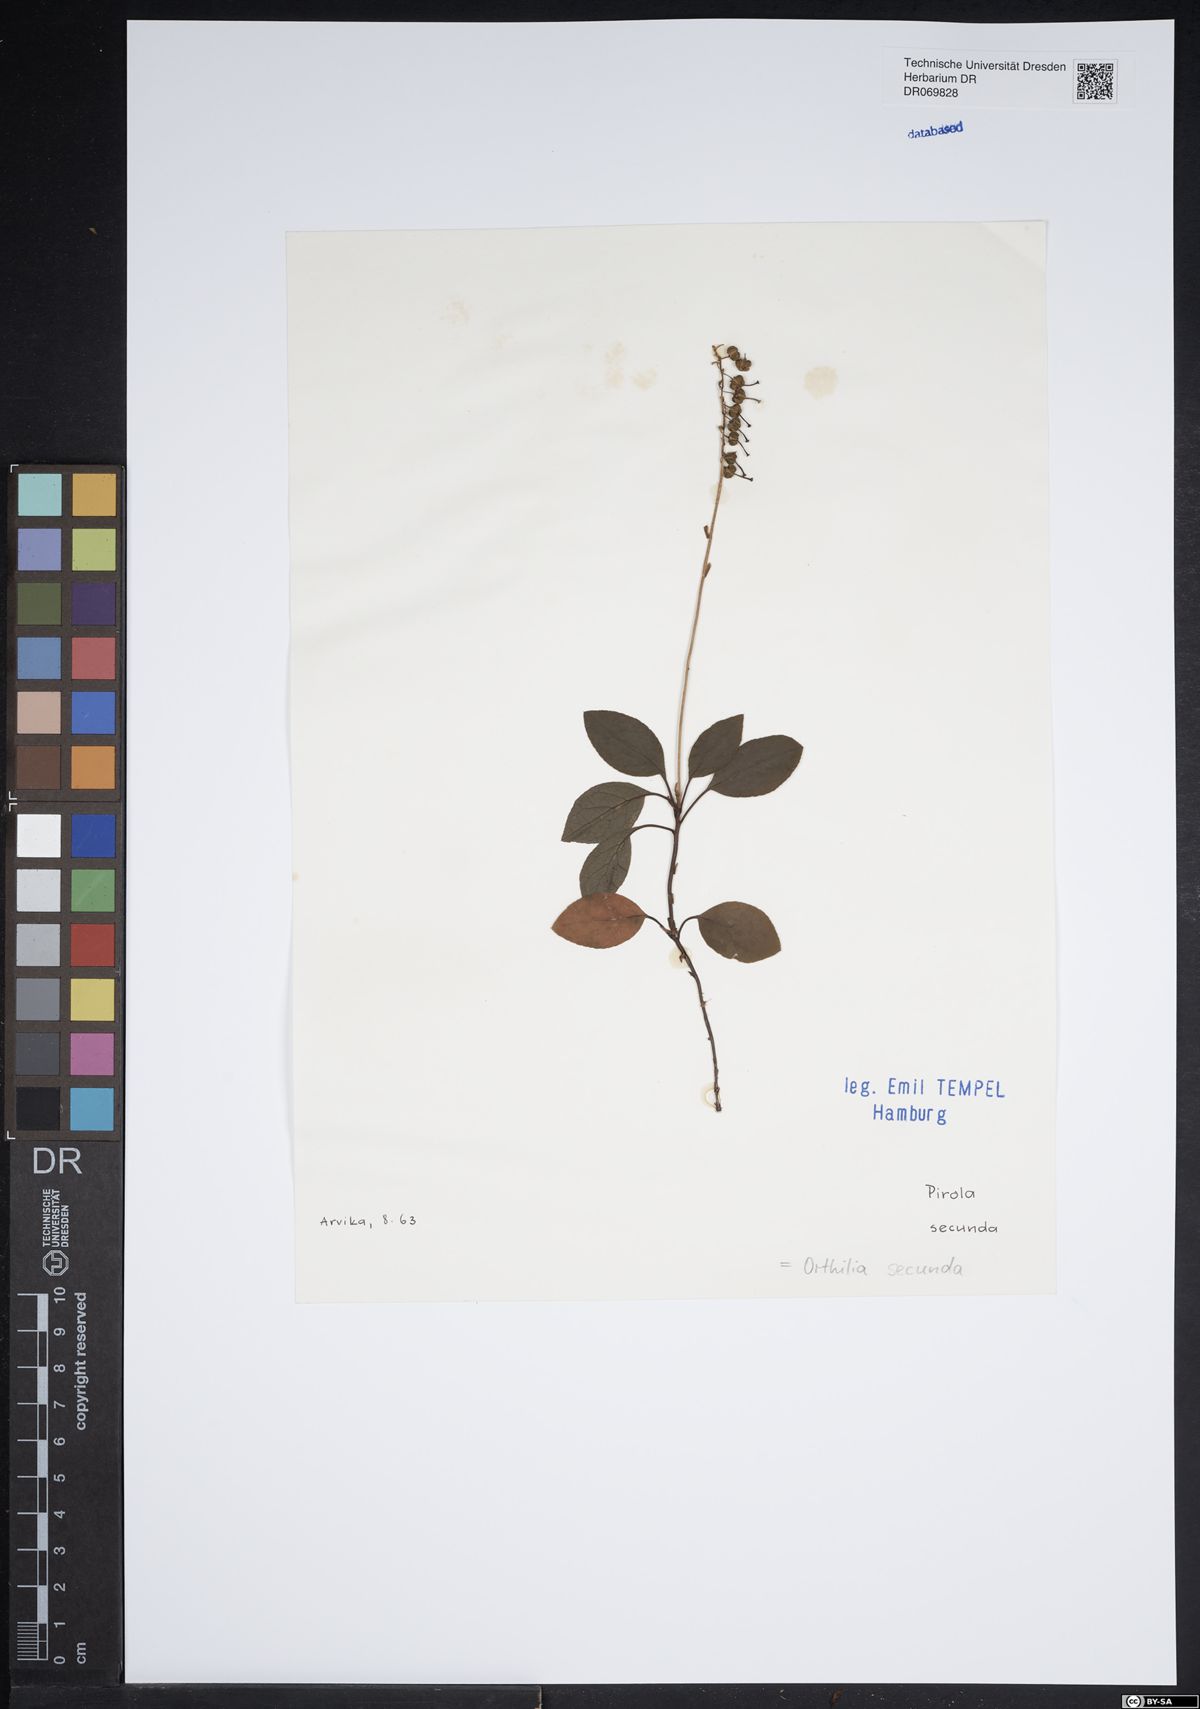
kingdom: Plantae
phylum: Tracheophyta
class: Magnoliopsida
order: Ericales
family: Ericaceae
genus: Orthilia
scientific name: Orthilia secunda
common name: One-sided orthilia
